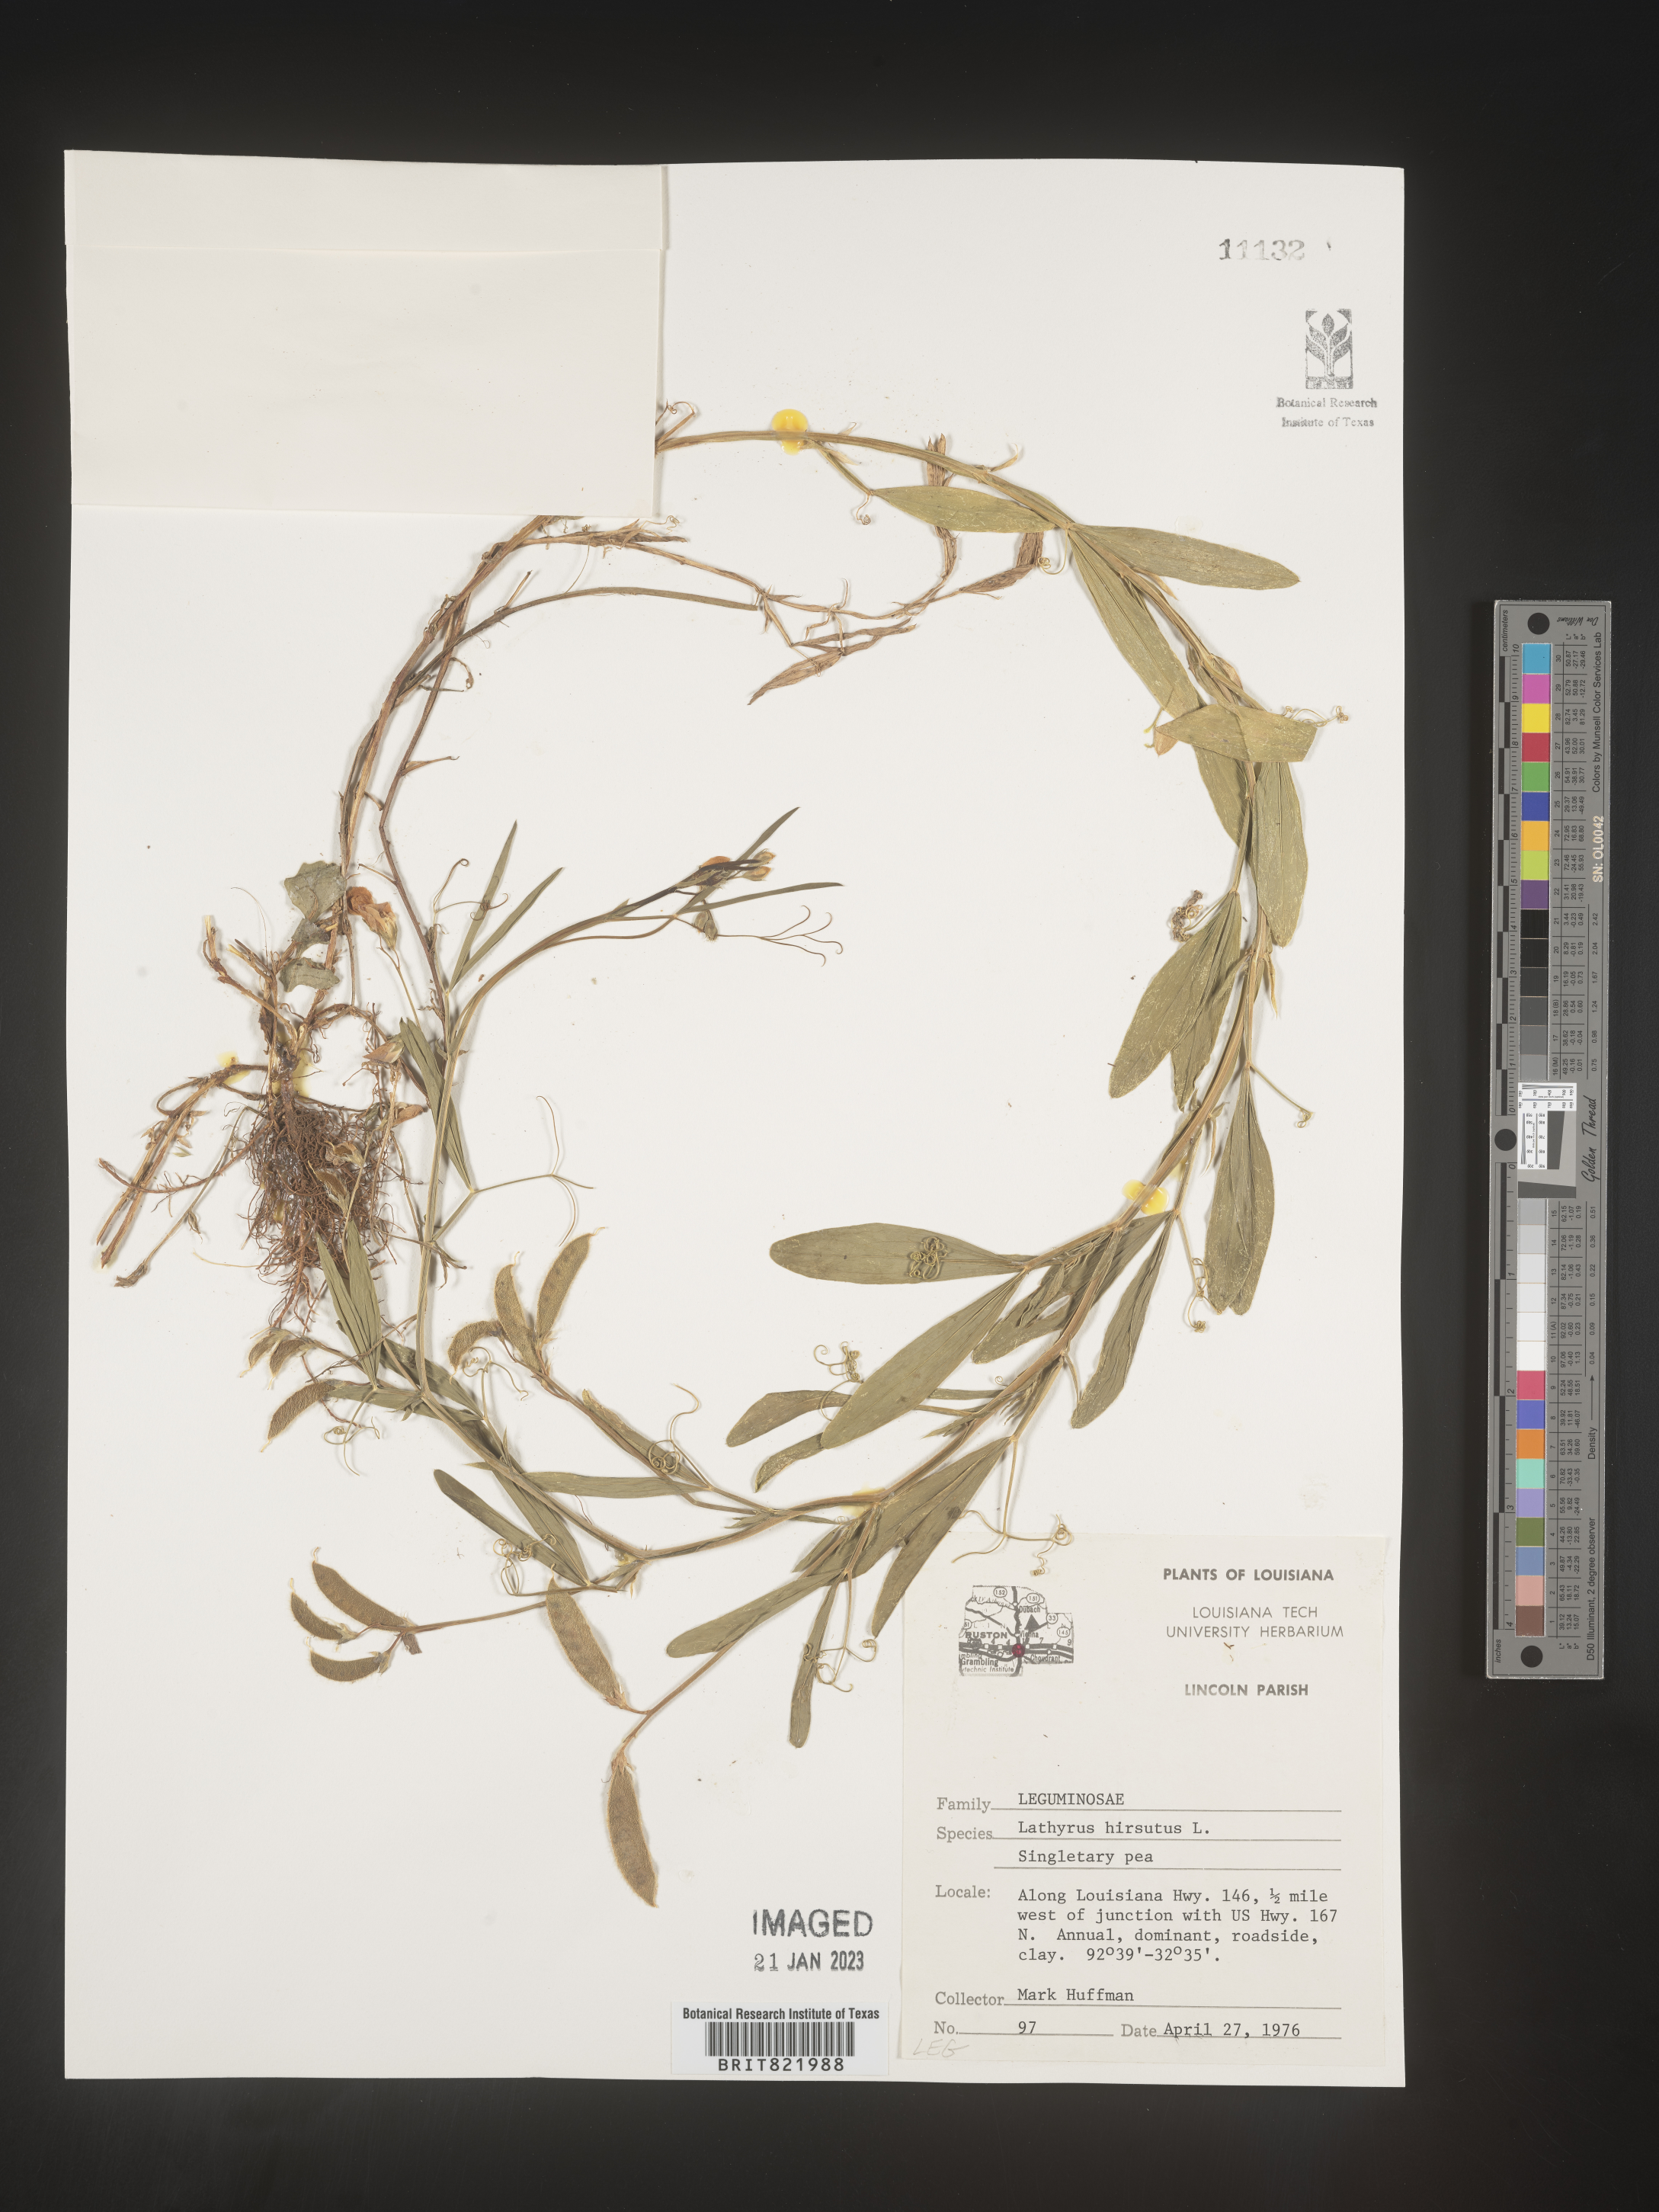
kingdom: Plantae
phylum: Tracheophyta
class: Magnoliopsida
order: Fabales
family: Fabaceae
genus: Lathyrus
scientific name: Lathyrus hirsutus
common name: Hairy vetchling
